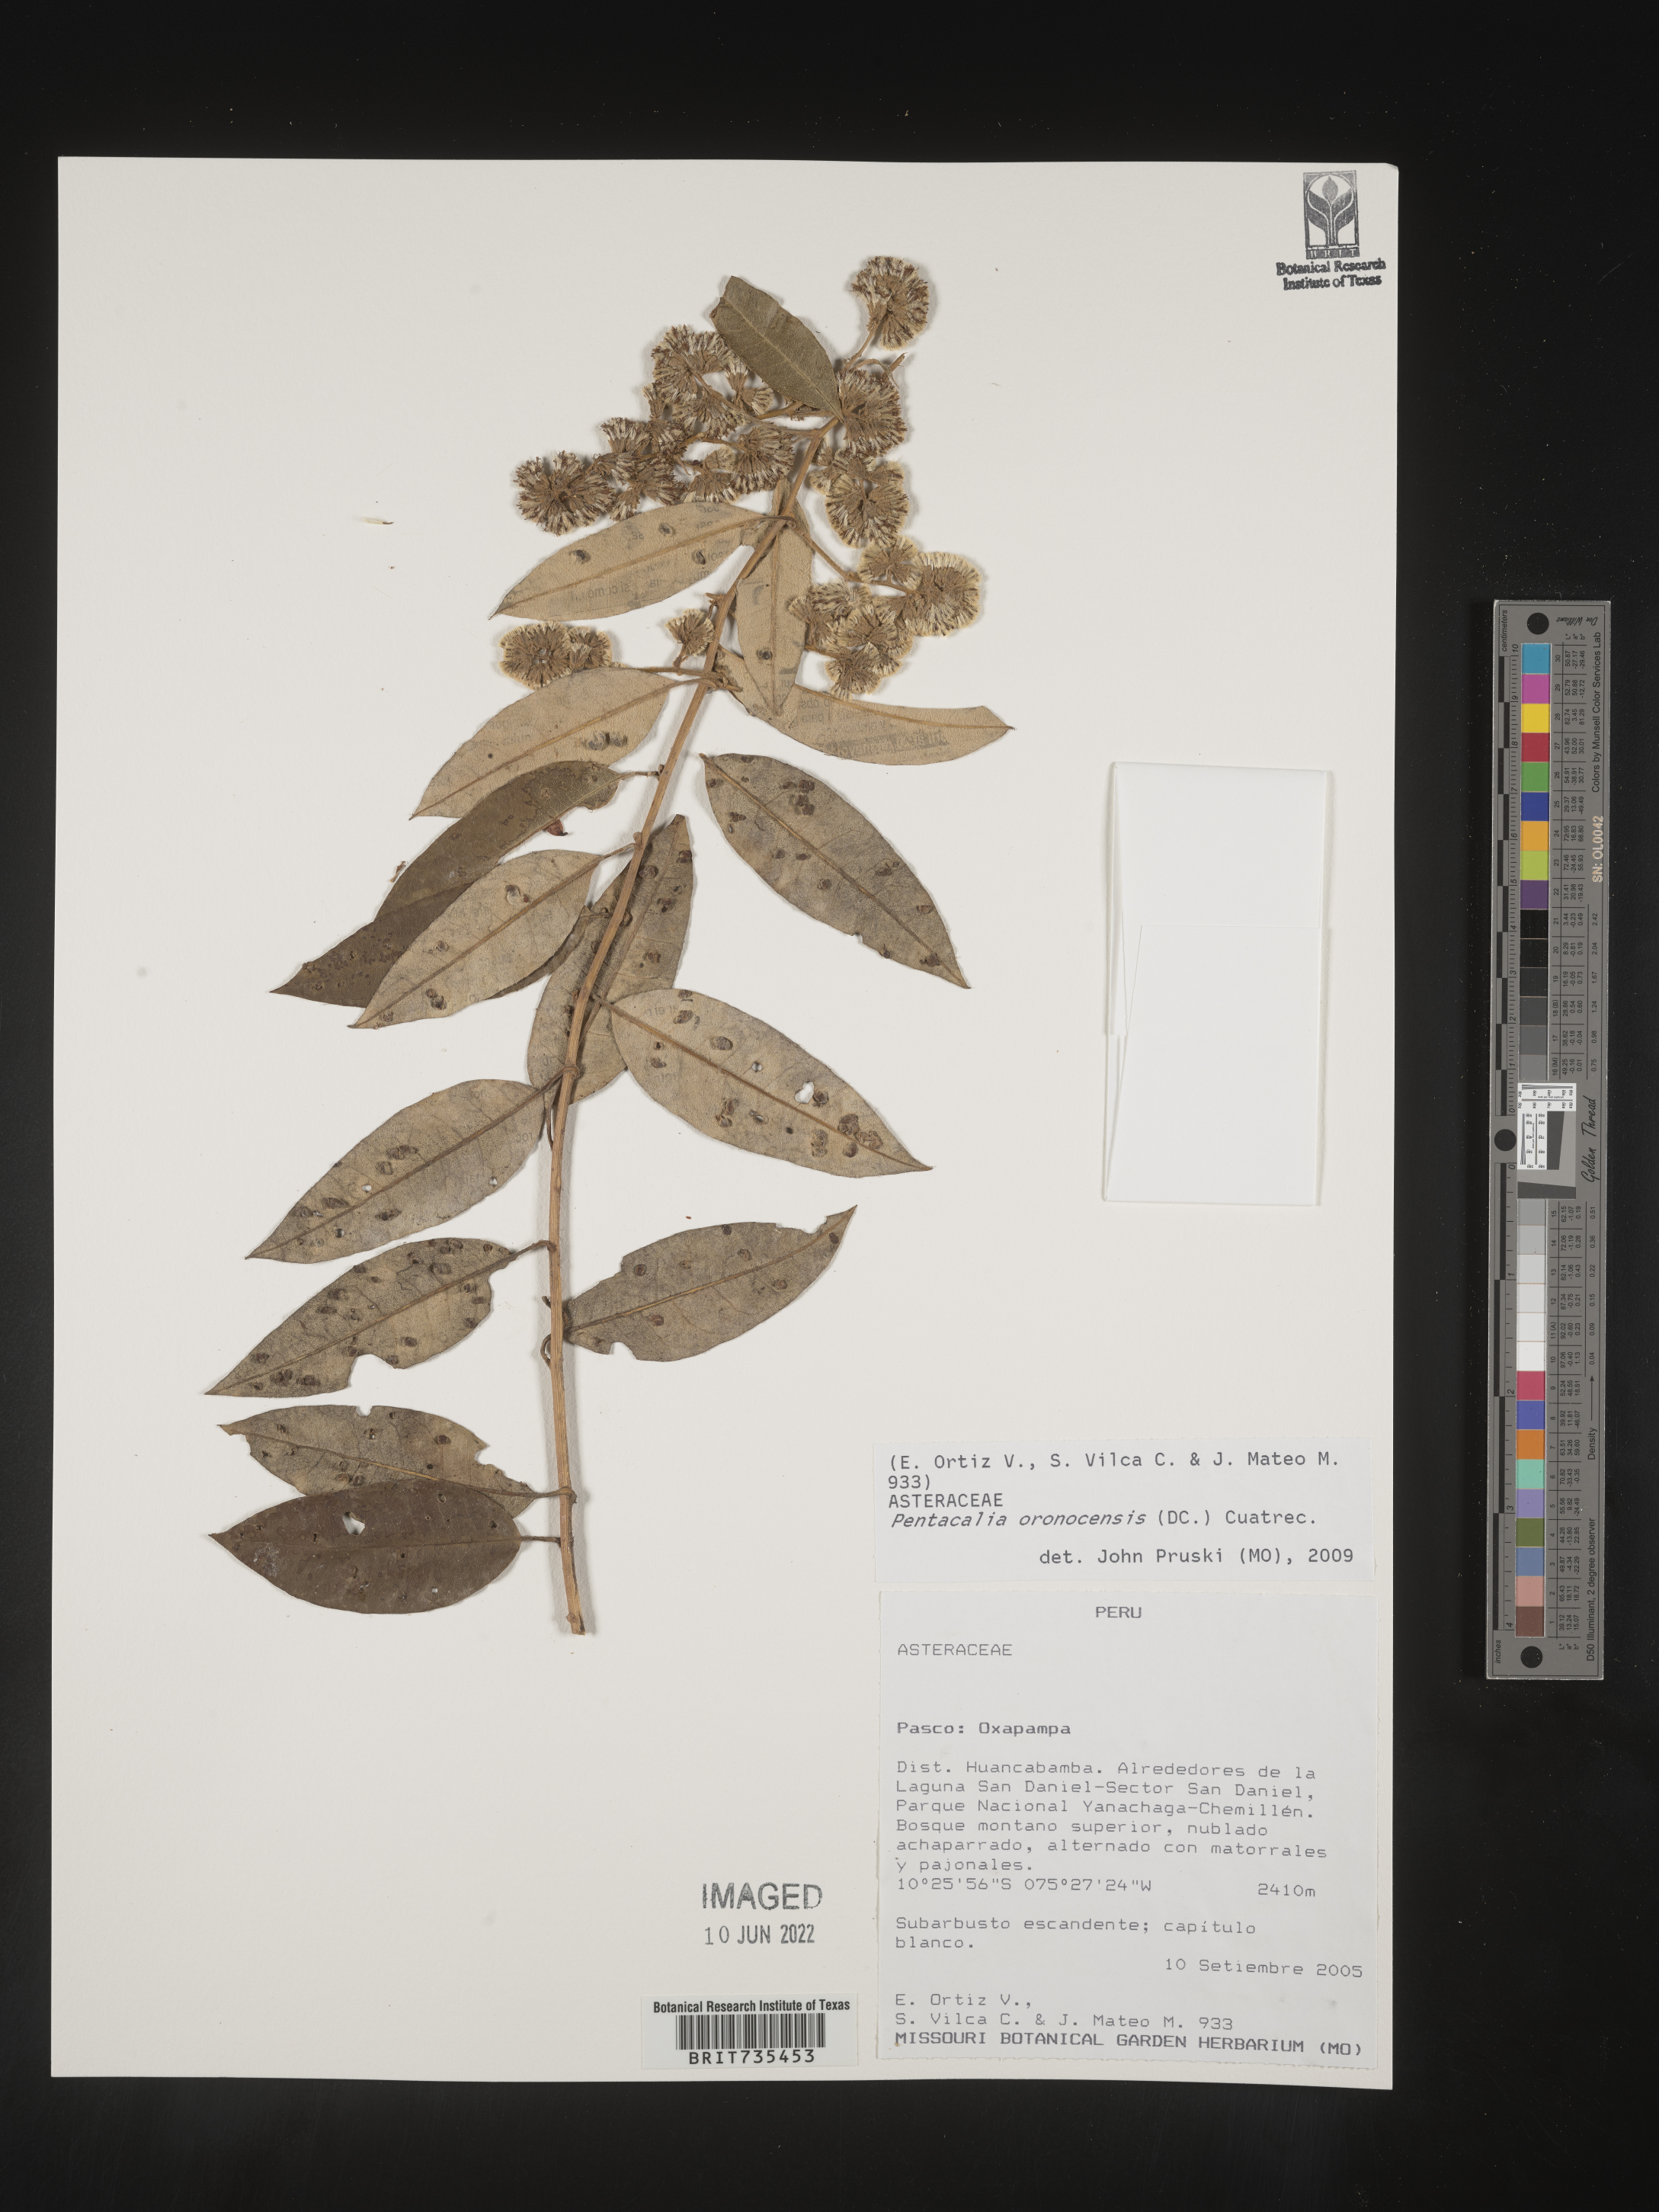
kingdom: Plantae
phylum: Tracheophyta
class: Magnoliopsida
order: Asterales
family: Asteraceae
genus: Pentacalia
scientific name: Pentacalia
